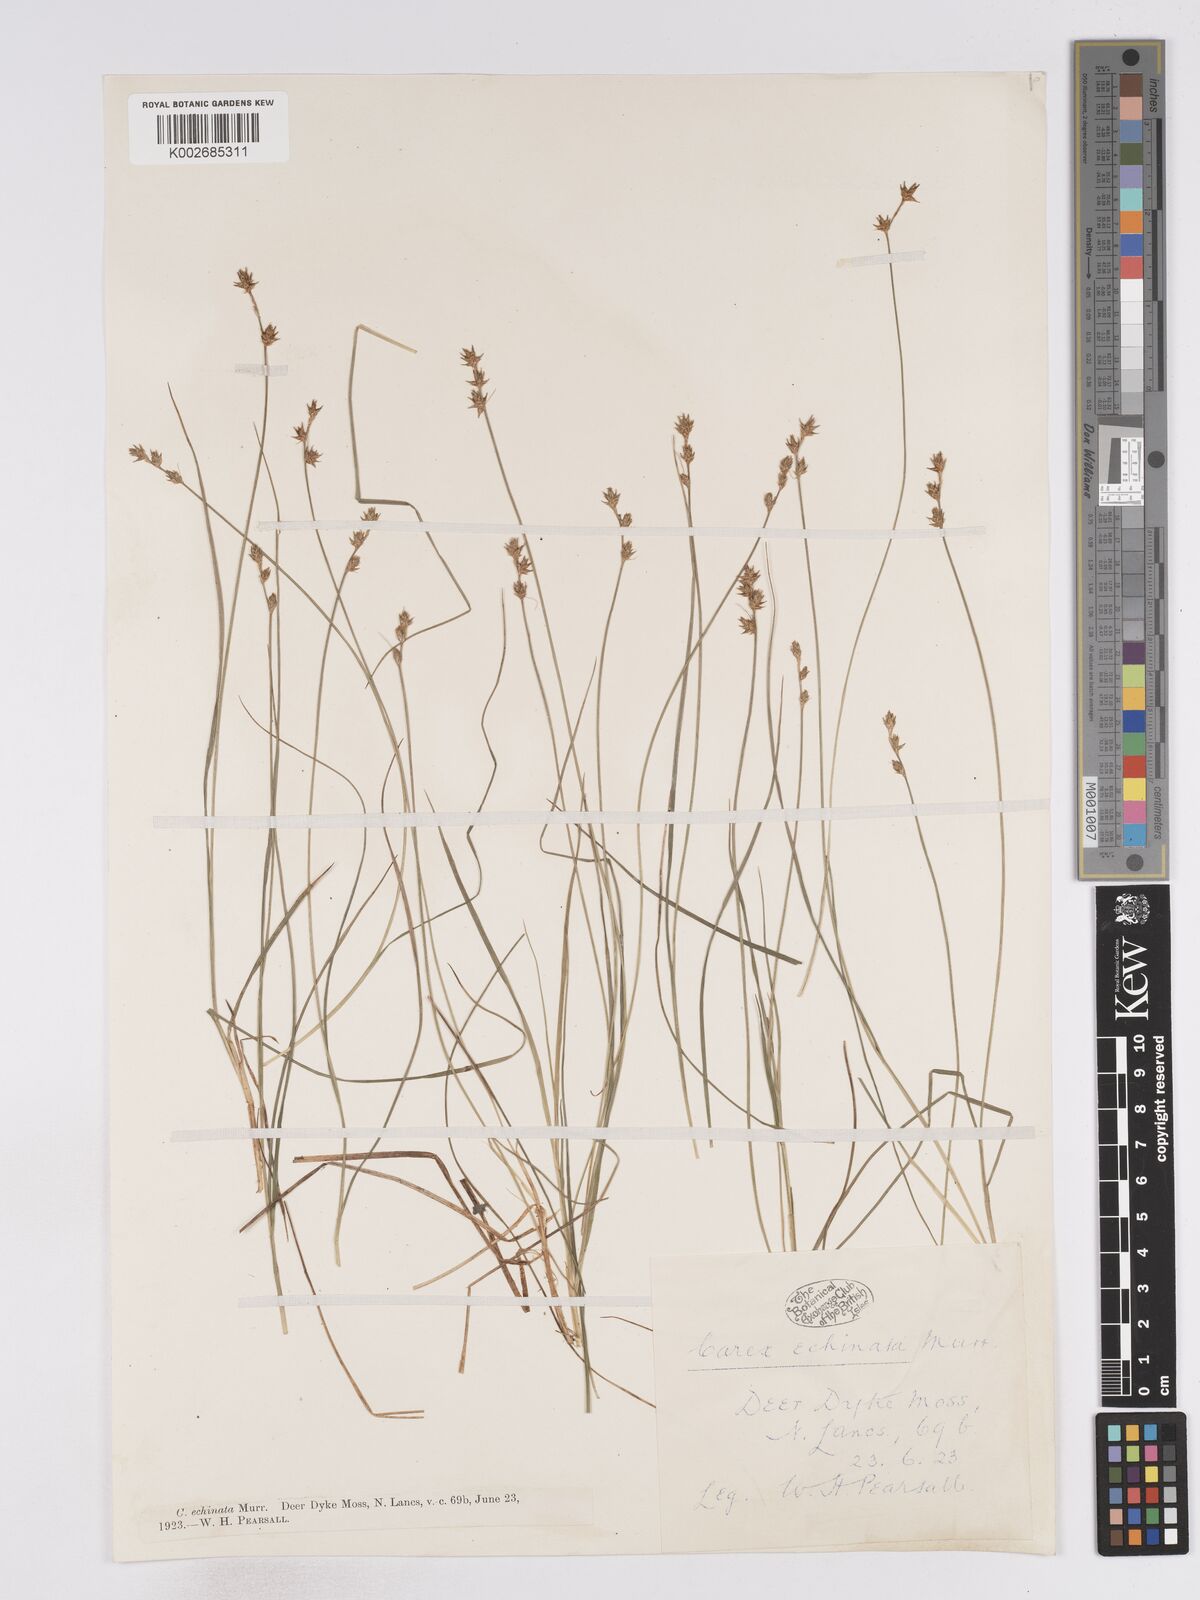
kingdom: Plantae
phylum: Tracheophyta
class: Liliopsida
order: Poales
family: Cyperaceae
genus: Carex
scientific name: Carex echinata
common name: Star sedge
